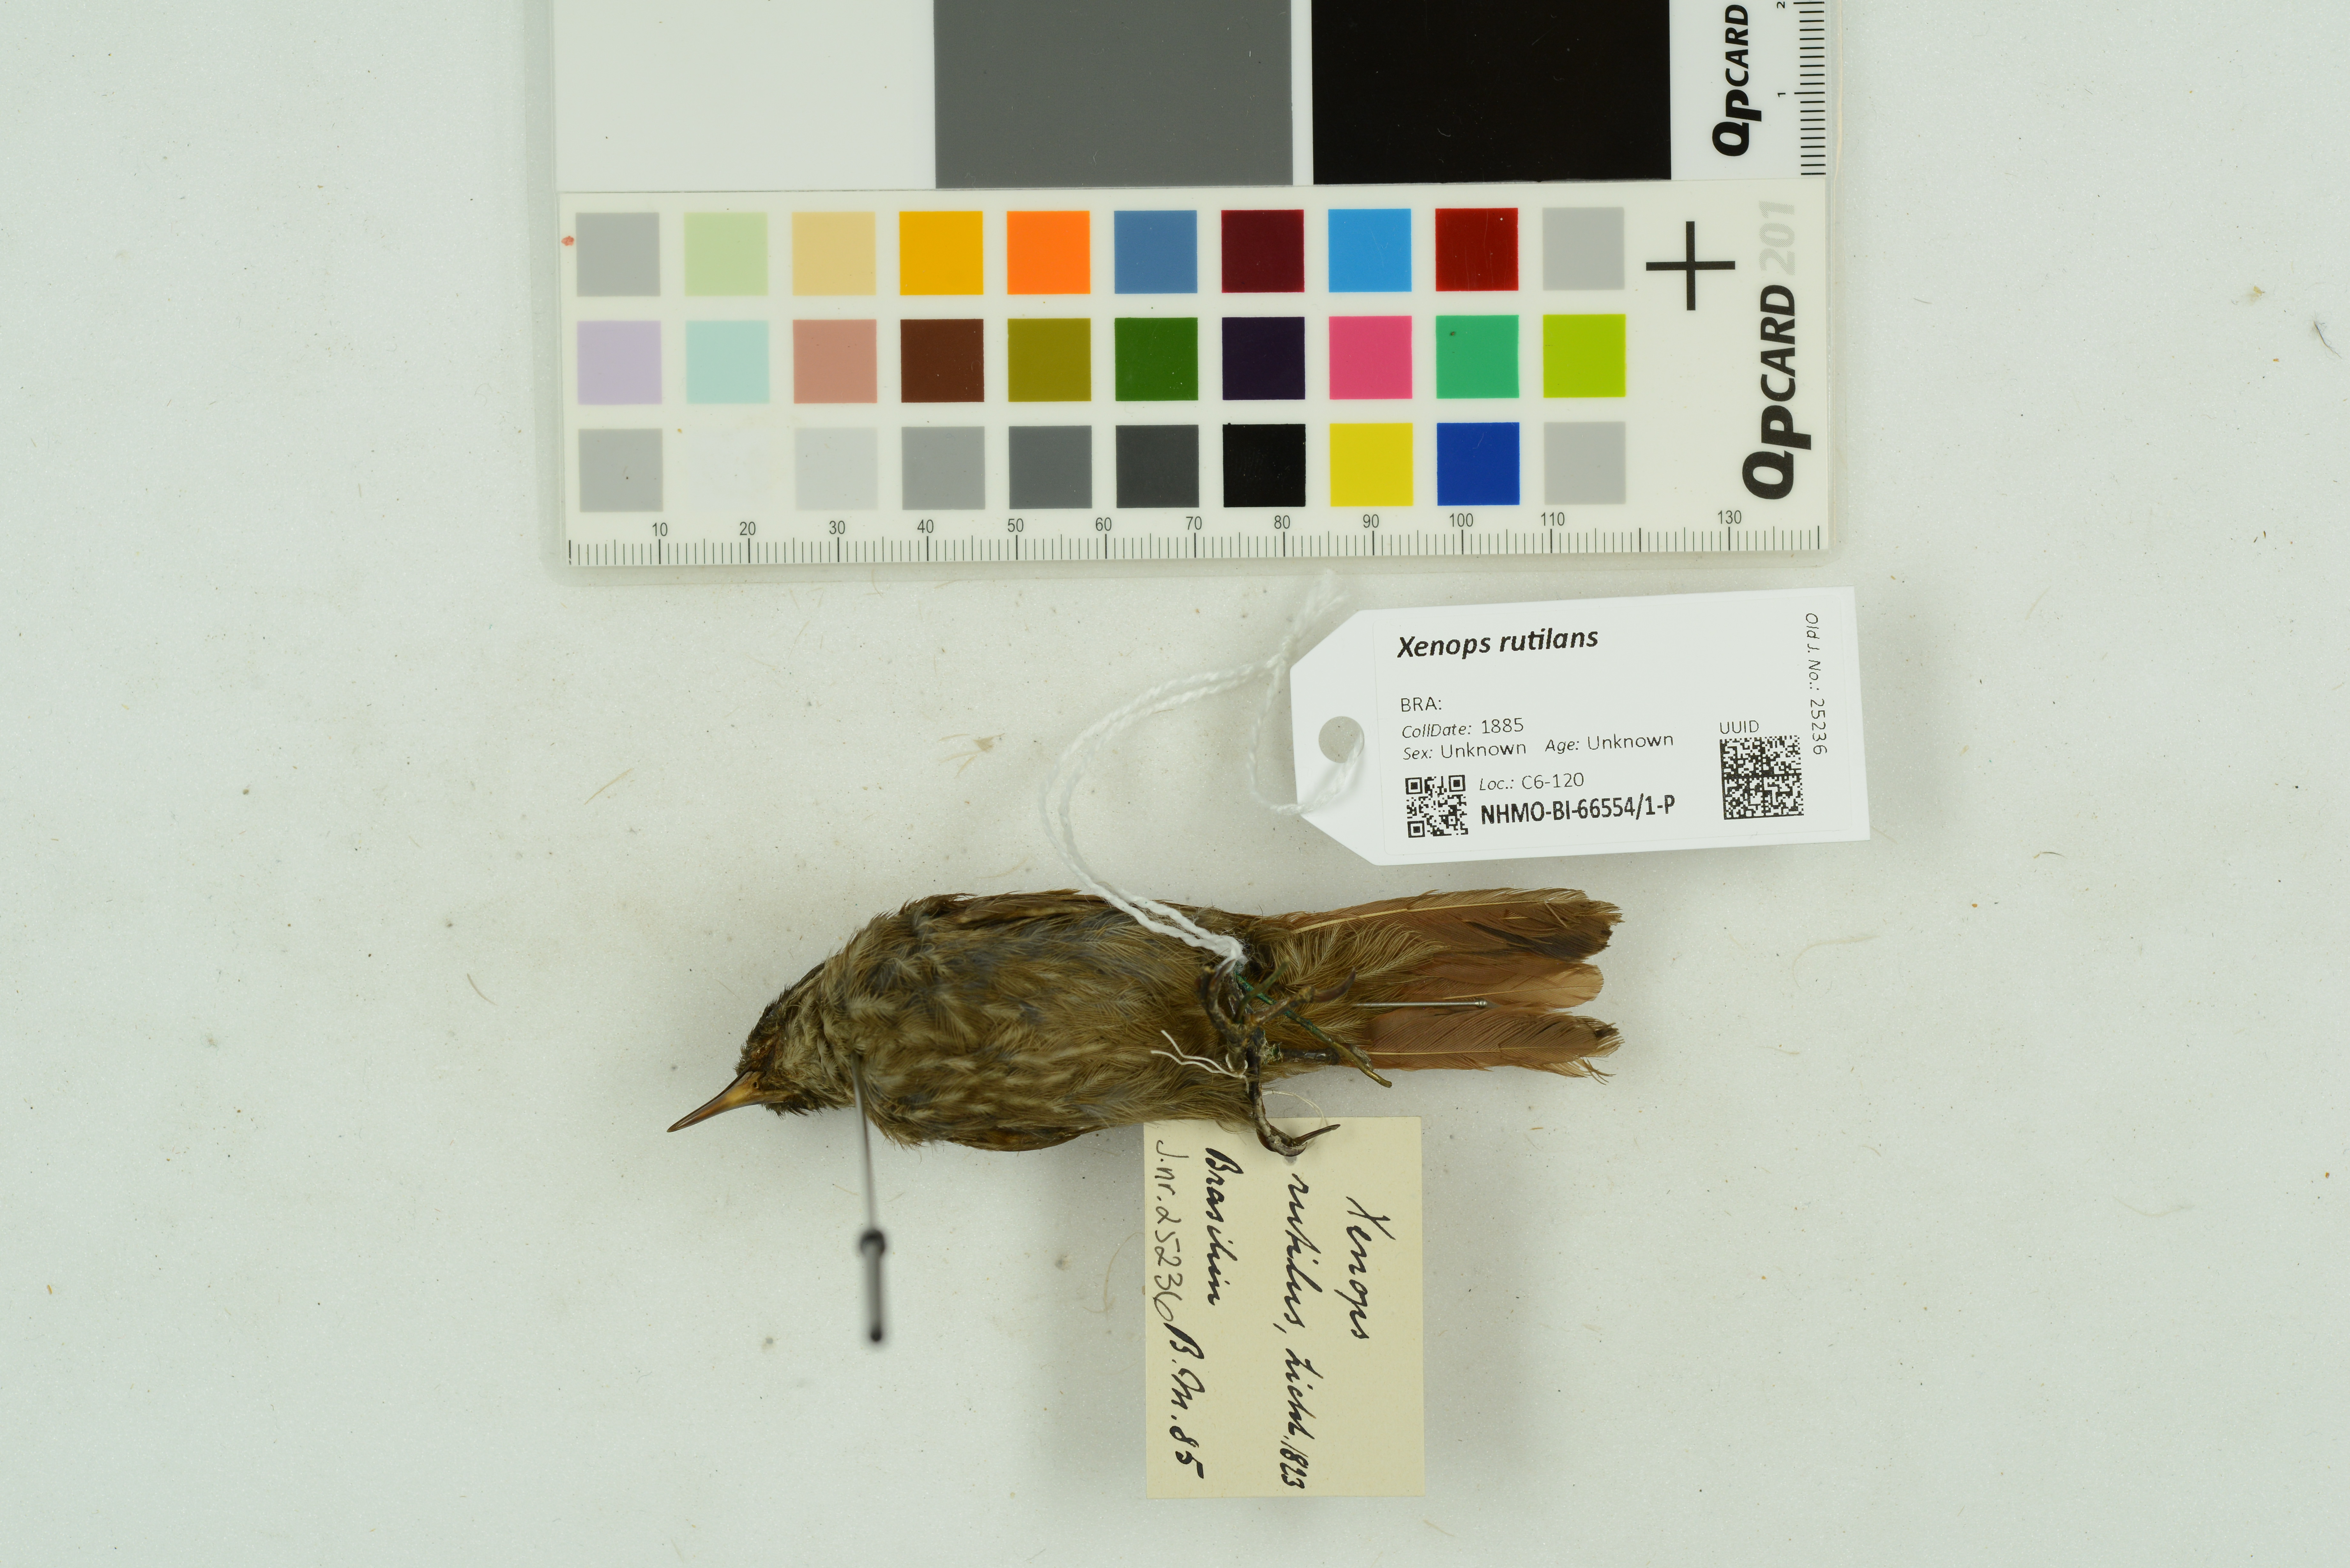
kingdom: Animalia
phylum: Chordata
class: Aves
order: Passeriformes
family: Furnariidae
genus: Xenops
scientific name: Xenops rutilans
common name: Streaked xenops
